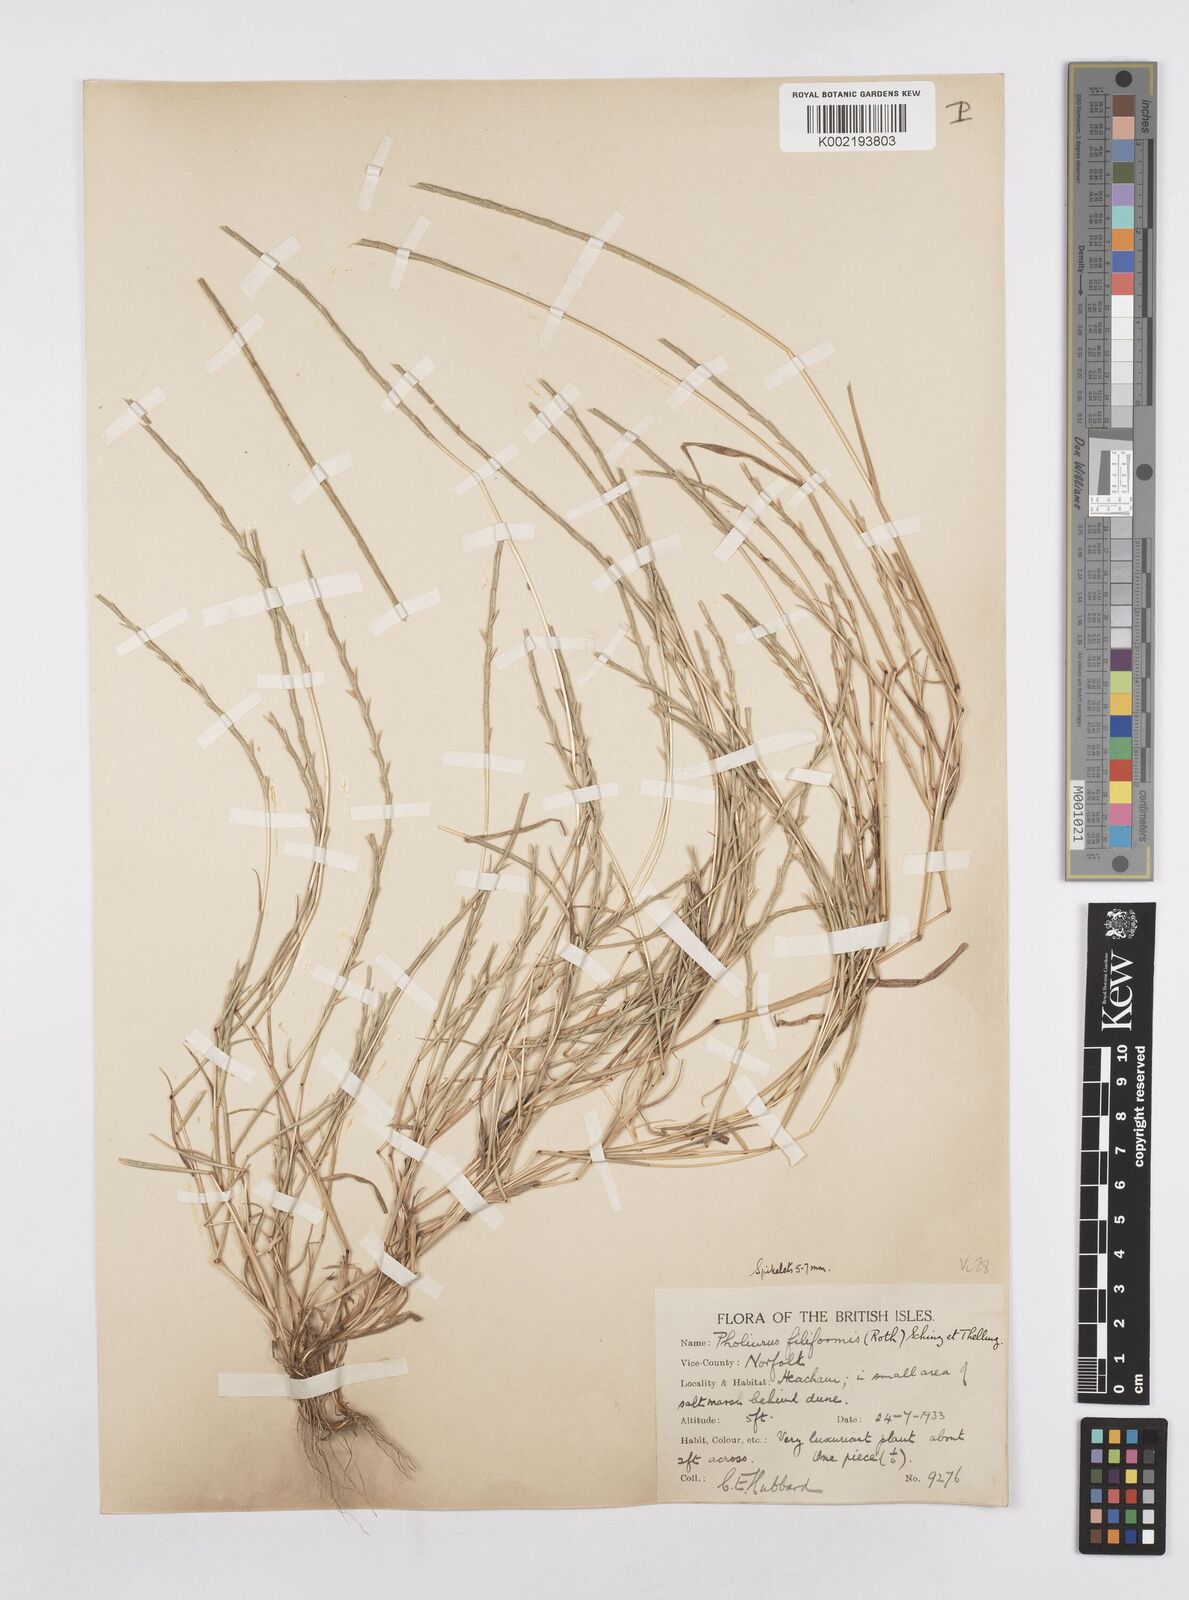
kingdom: Plantae
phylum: Tracheophyta
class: Liliopsida
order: Poales
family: Poaceae
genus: Parapholis
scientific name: Parapholis strigosa
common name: Hard-grass
